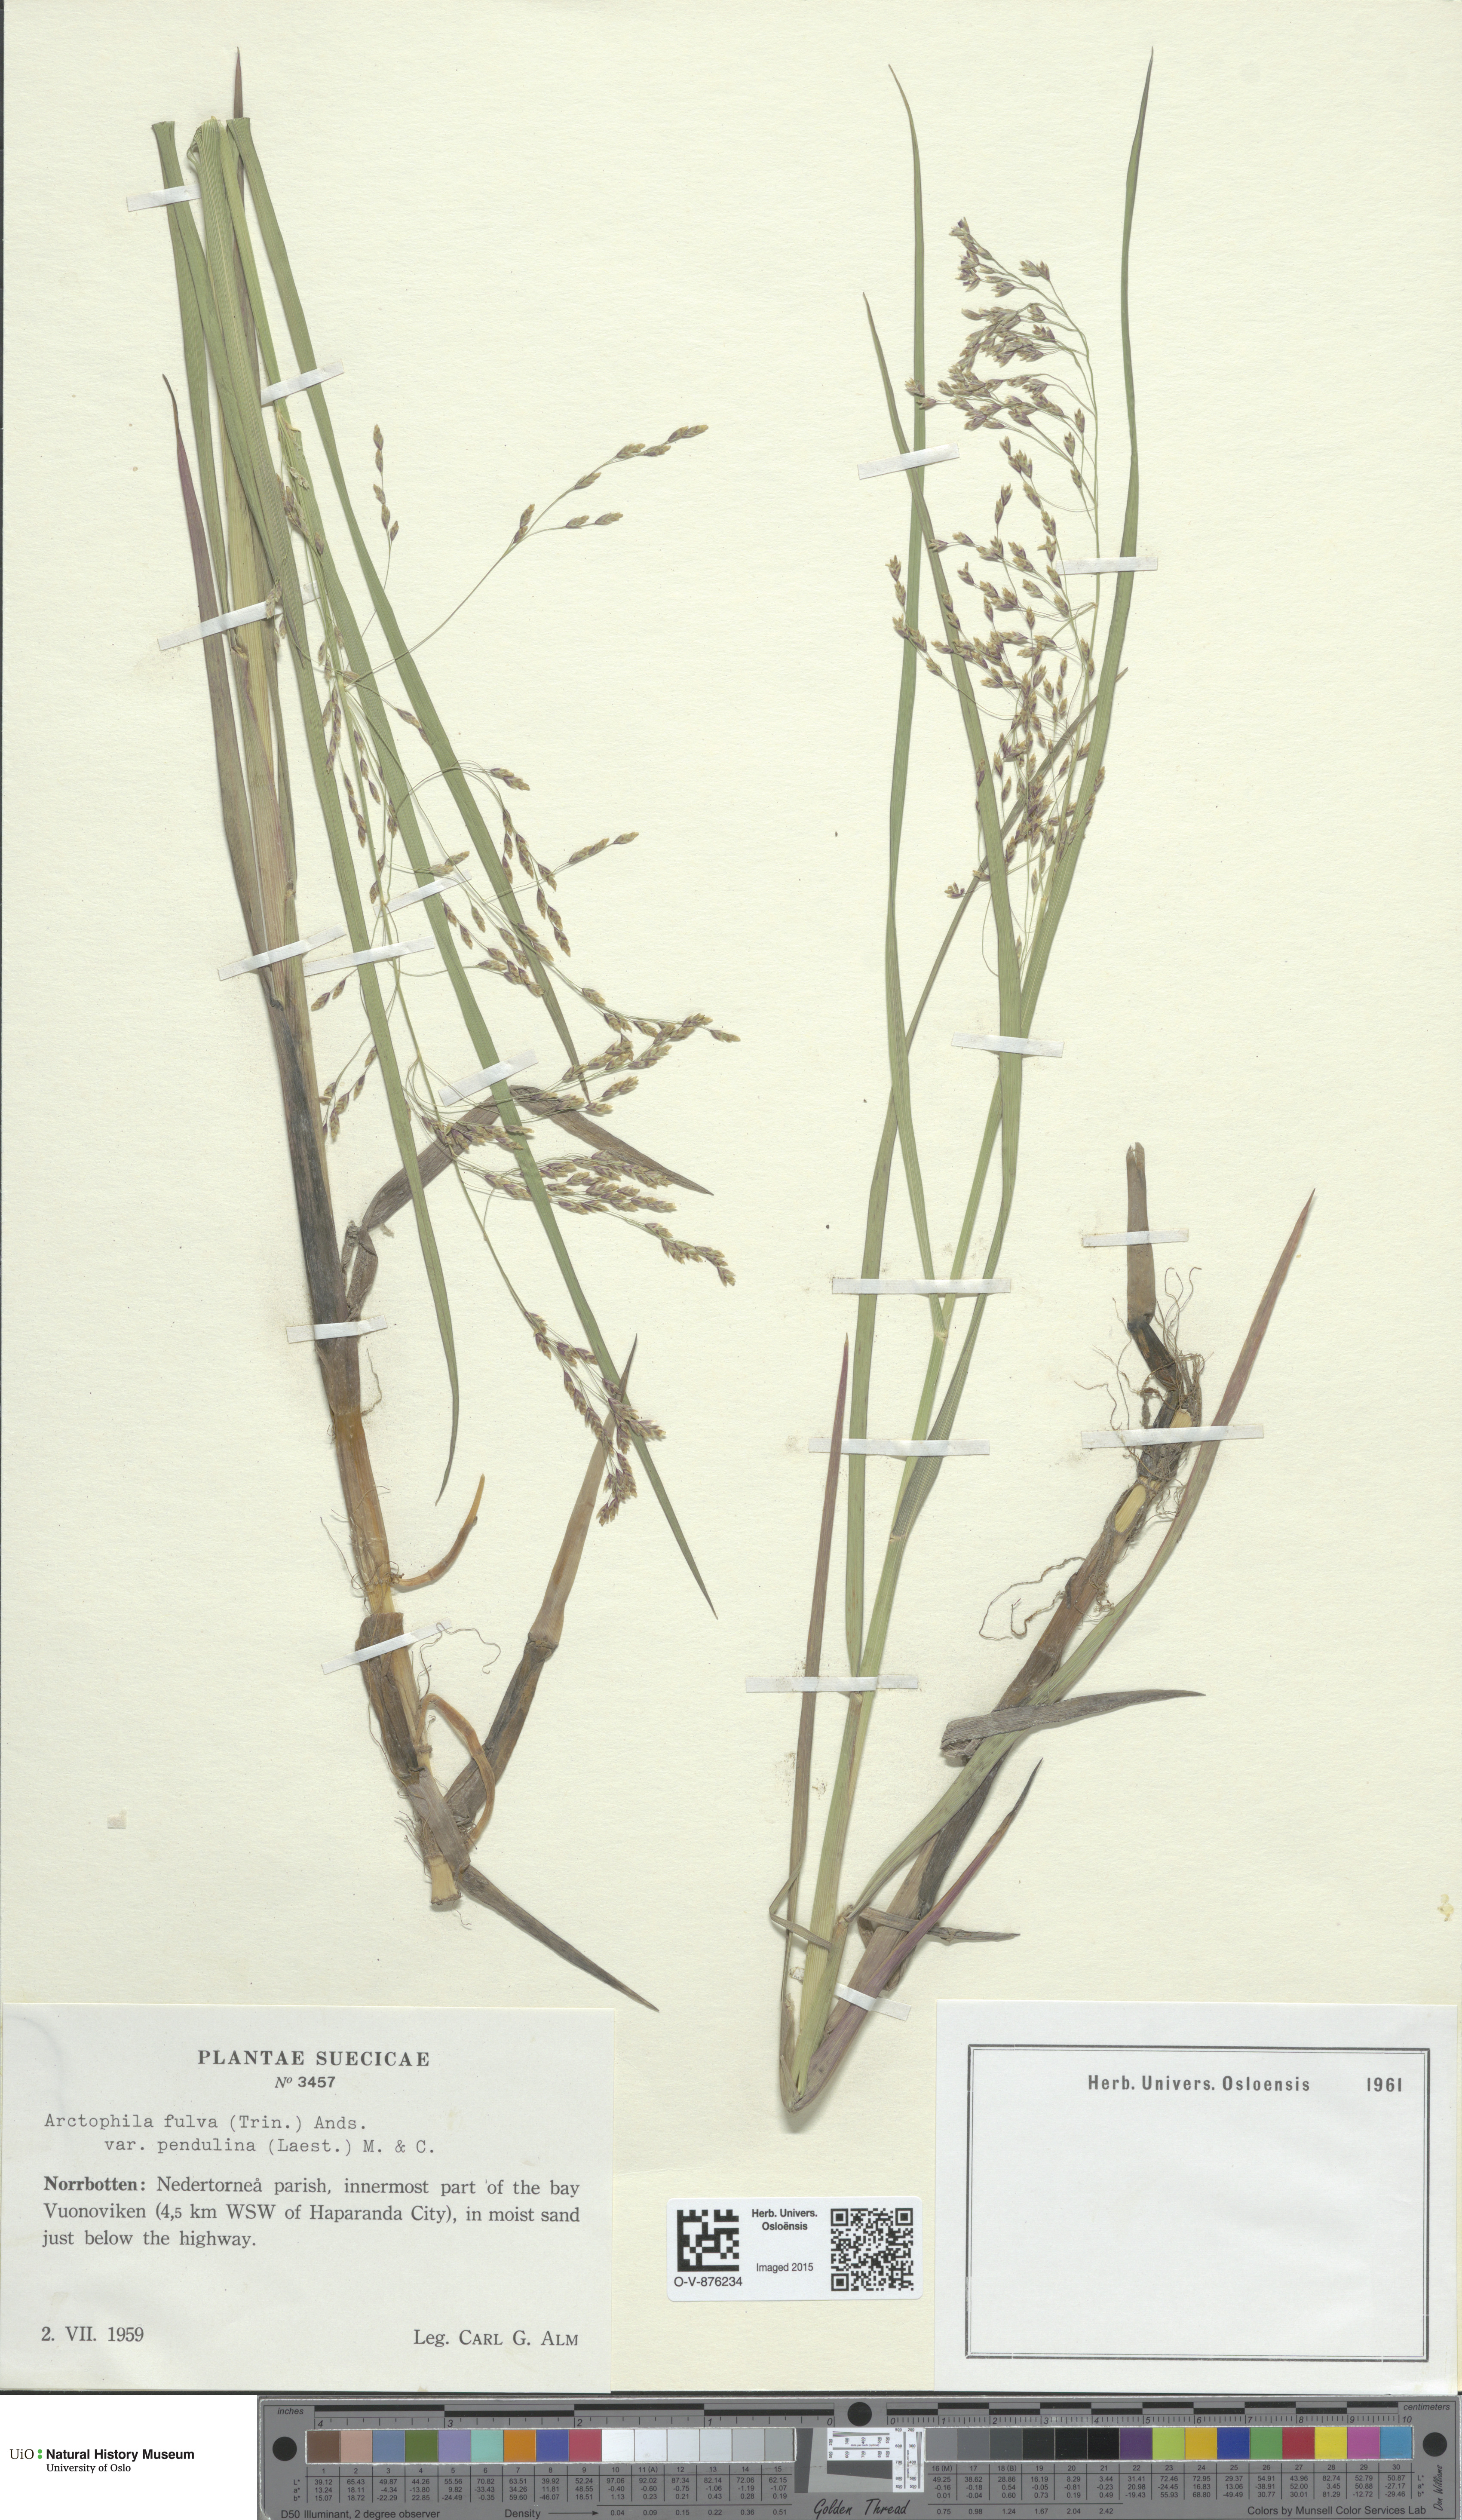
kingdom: Plantae
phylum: Tracheophyta
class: Liliopsida
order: Poales
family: Poaceae
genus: Dupontia
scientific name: Dupontia fulva
